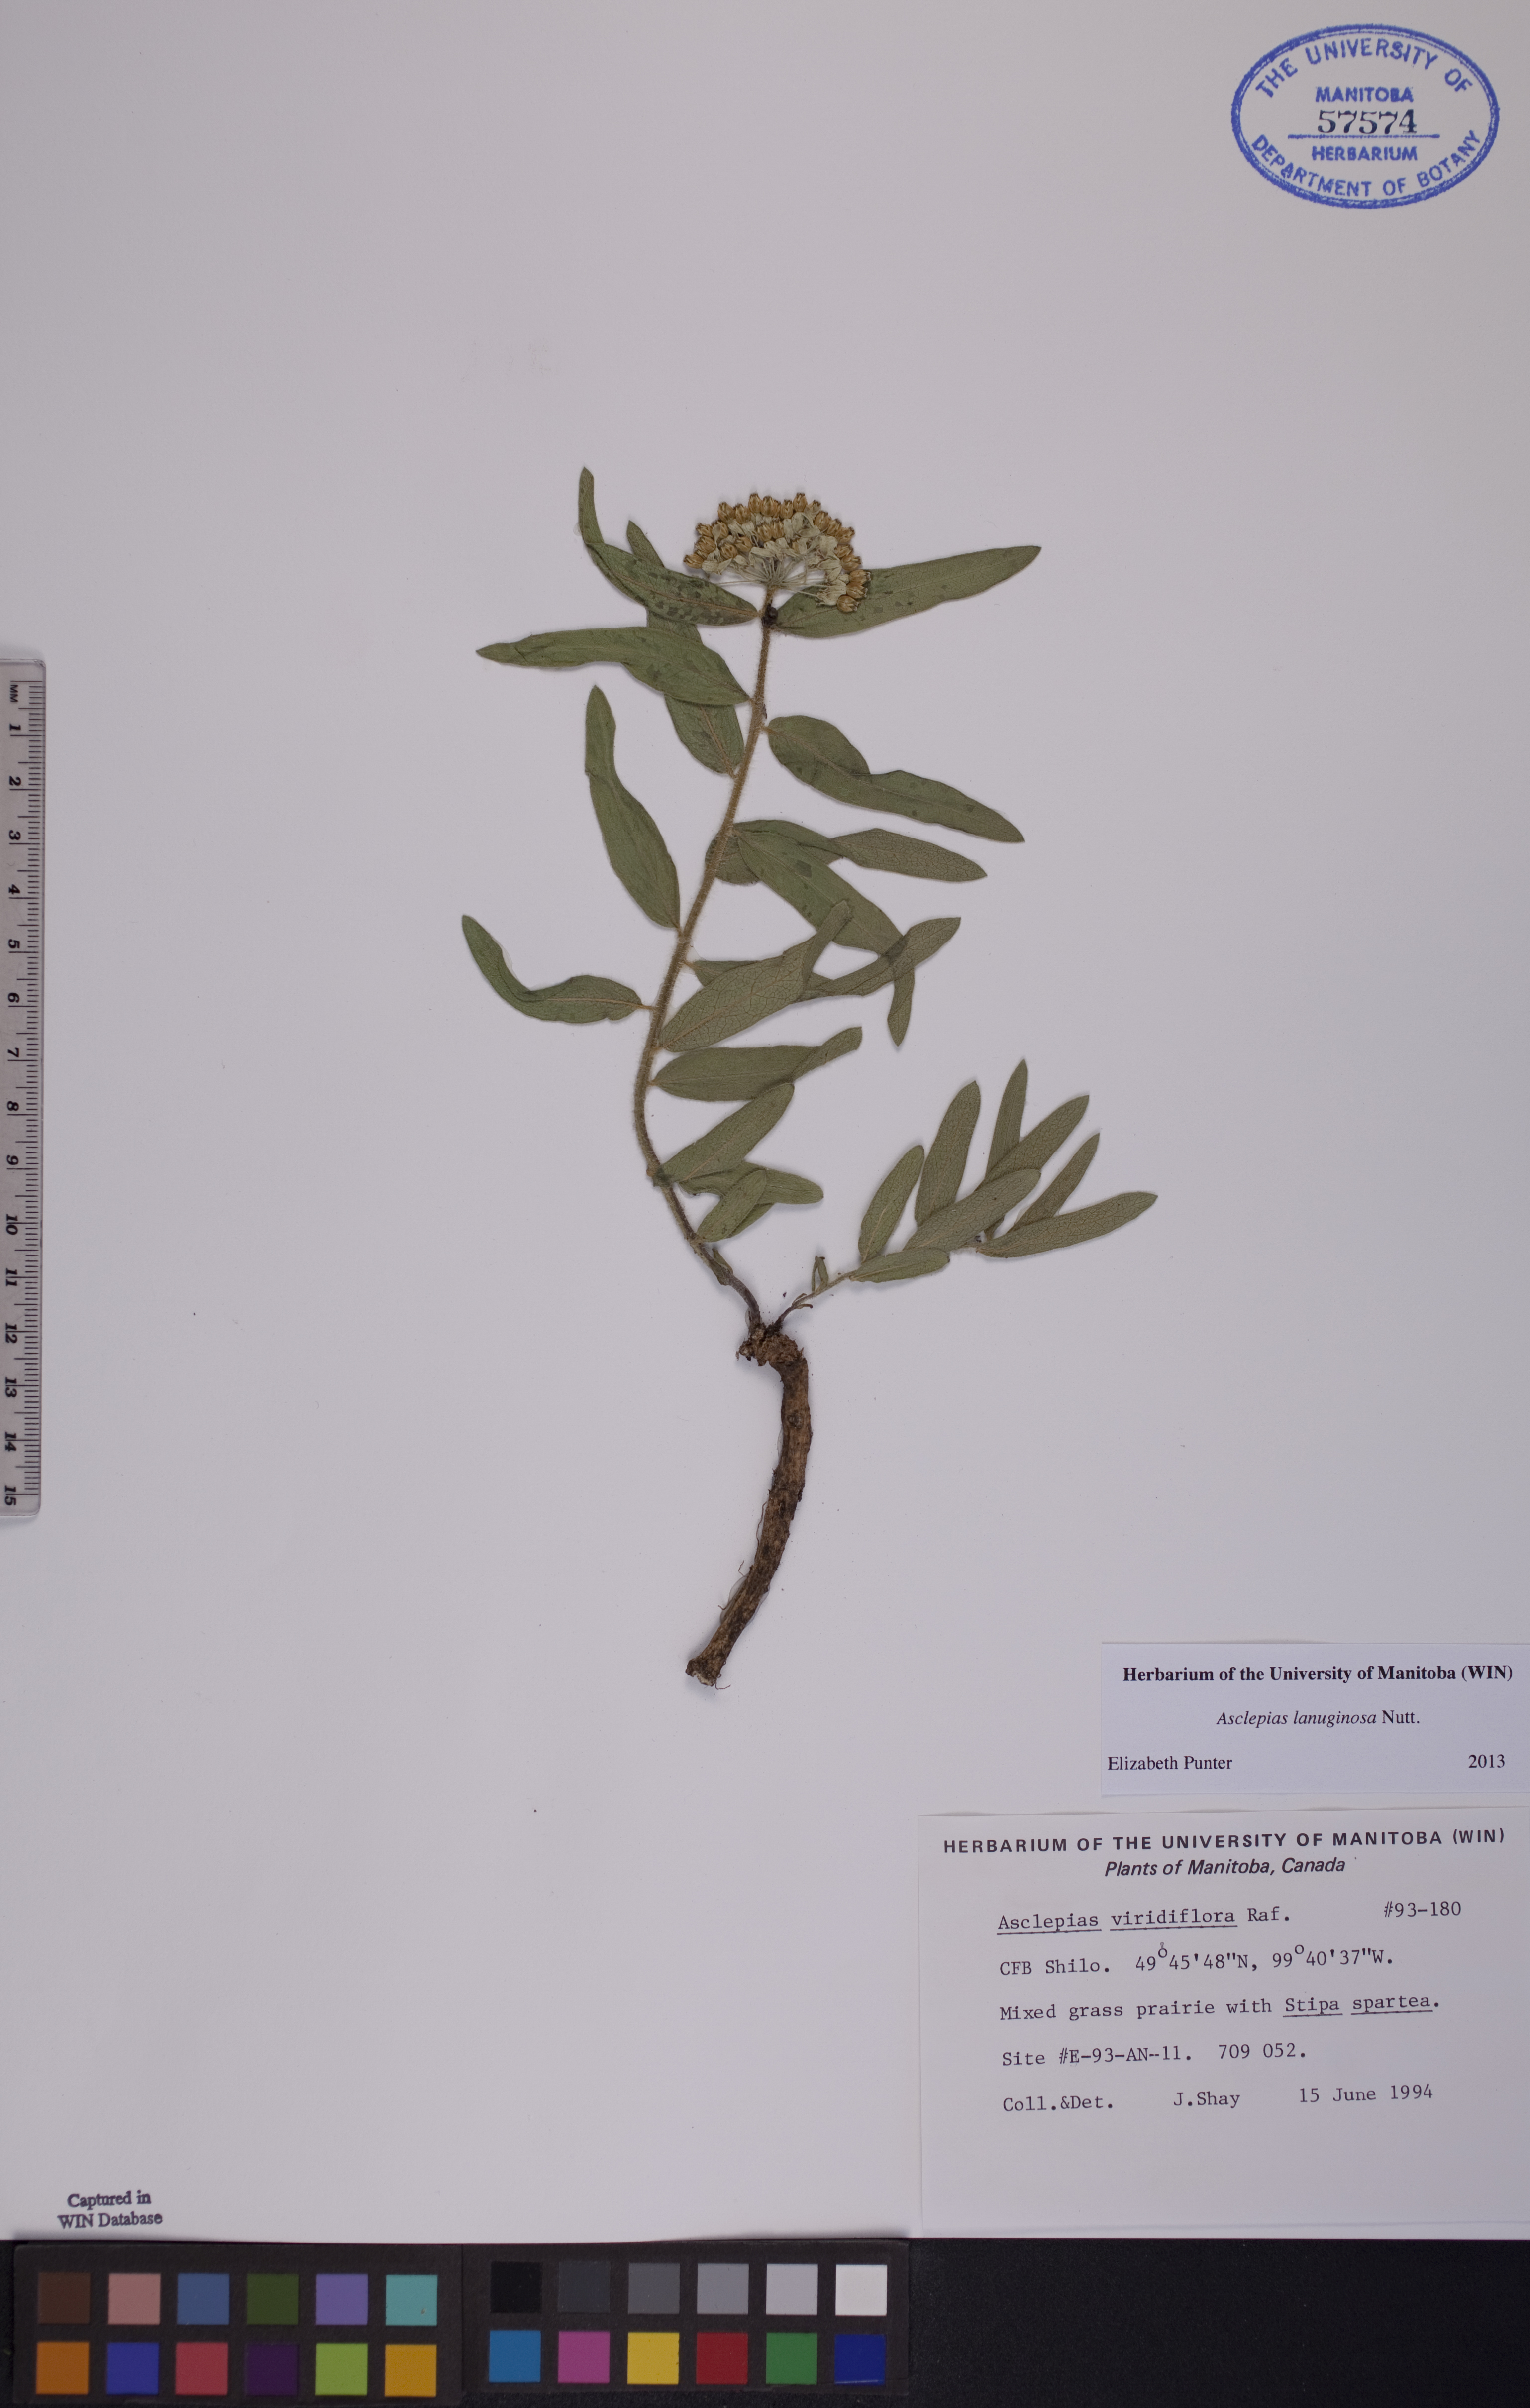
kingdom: Plantae
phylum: Tracheophyta
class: Magnoliopsida
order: Gentianales
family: Apocynaceae
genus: Asclepias
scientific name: Asclepias lanuginosa
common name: Side-cluster milkweed
